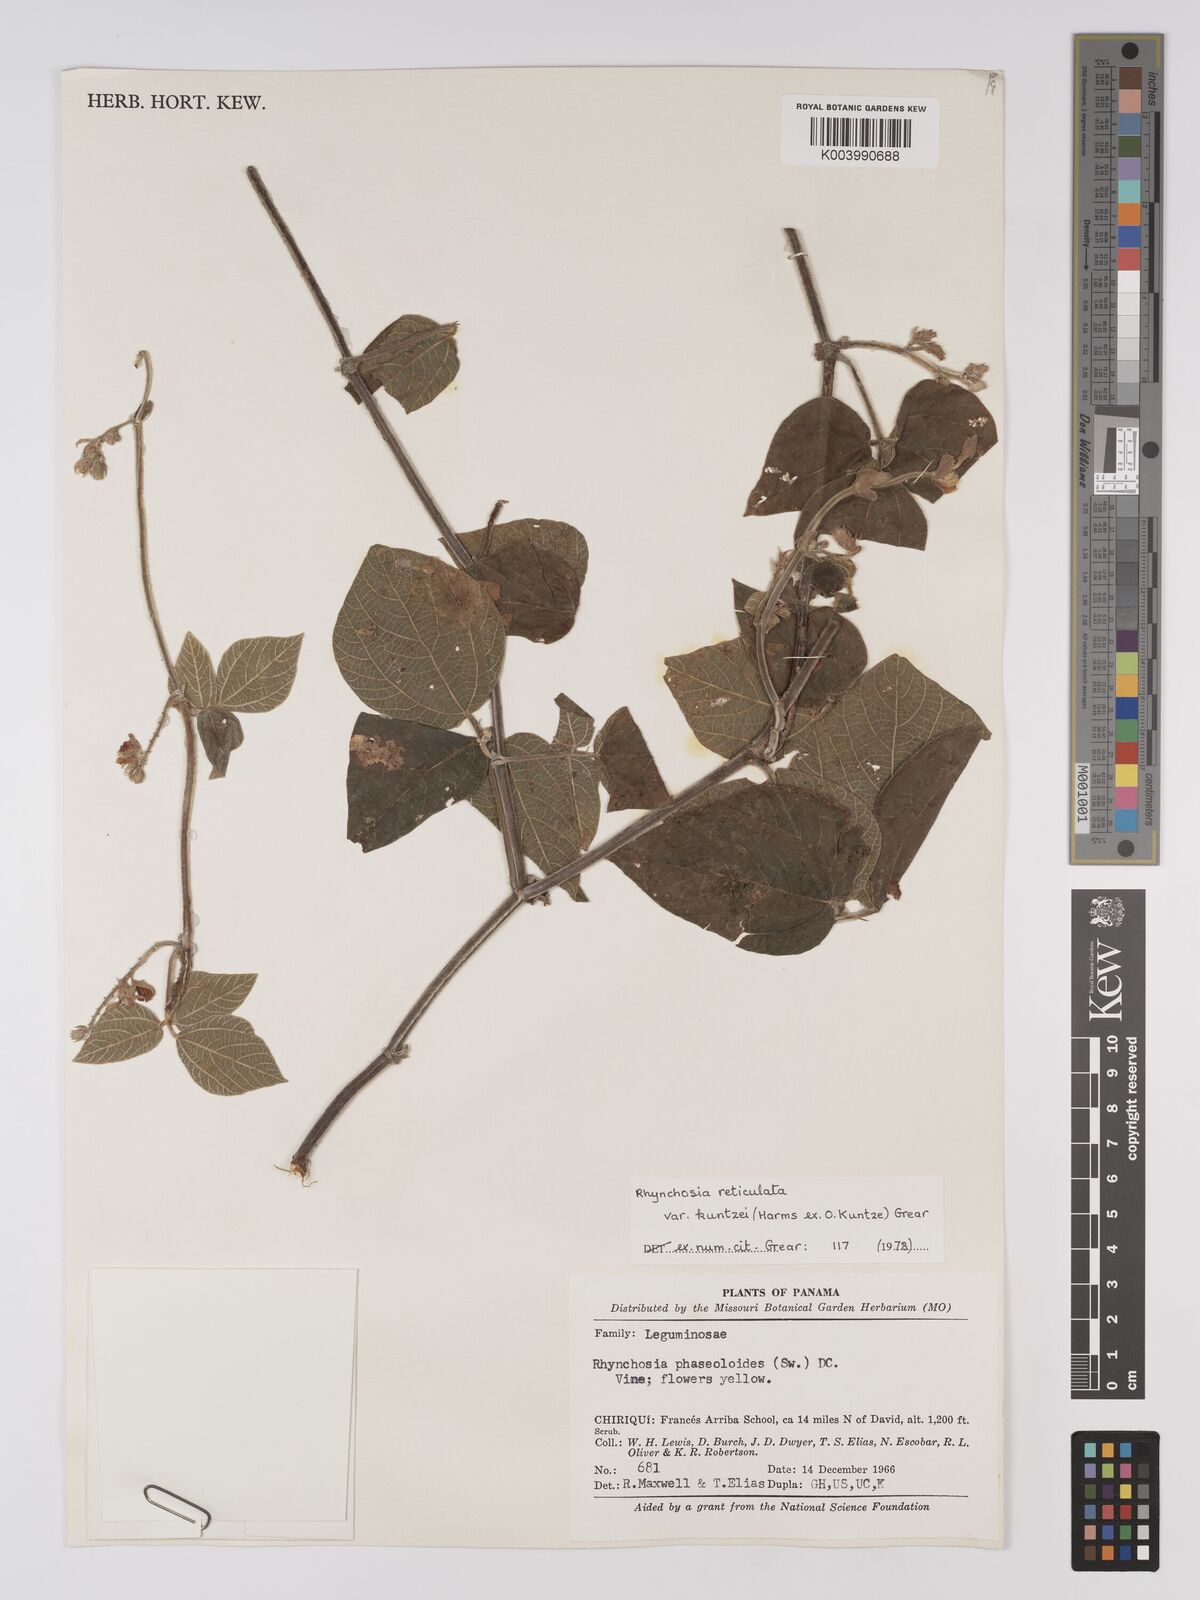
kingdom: Plantae
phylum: Tracheophyta
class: Magnoliopsida
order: Fabales
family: Fabaceae
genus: Rhynchosia
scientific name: Rhynchosia reticulata
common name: Pea withe
